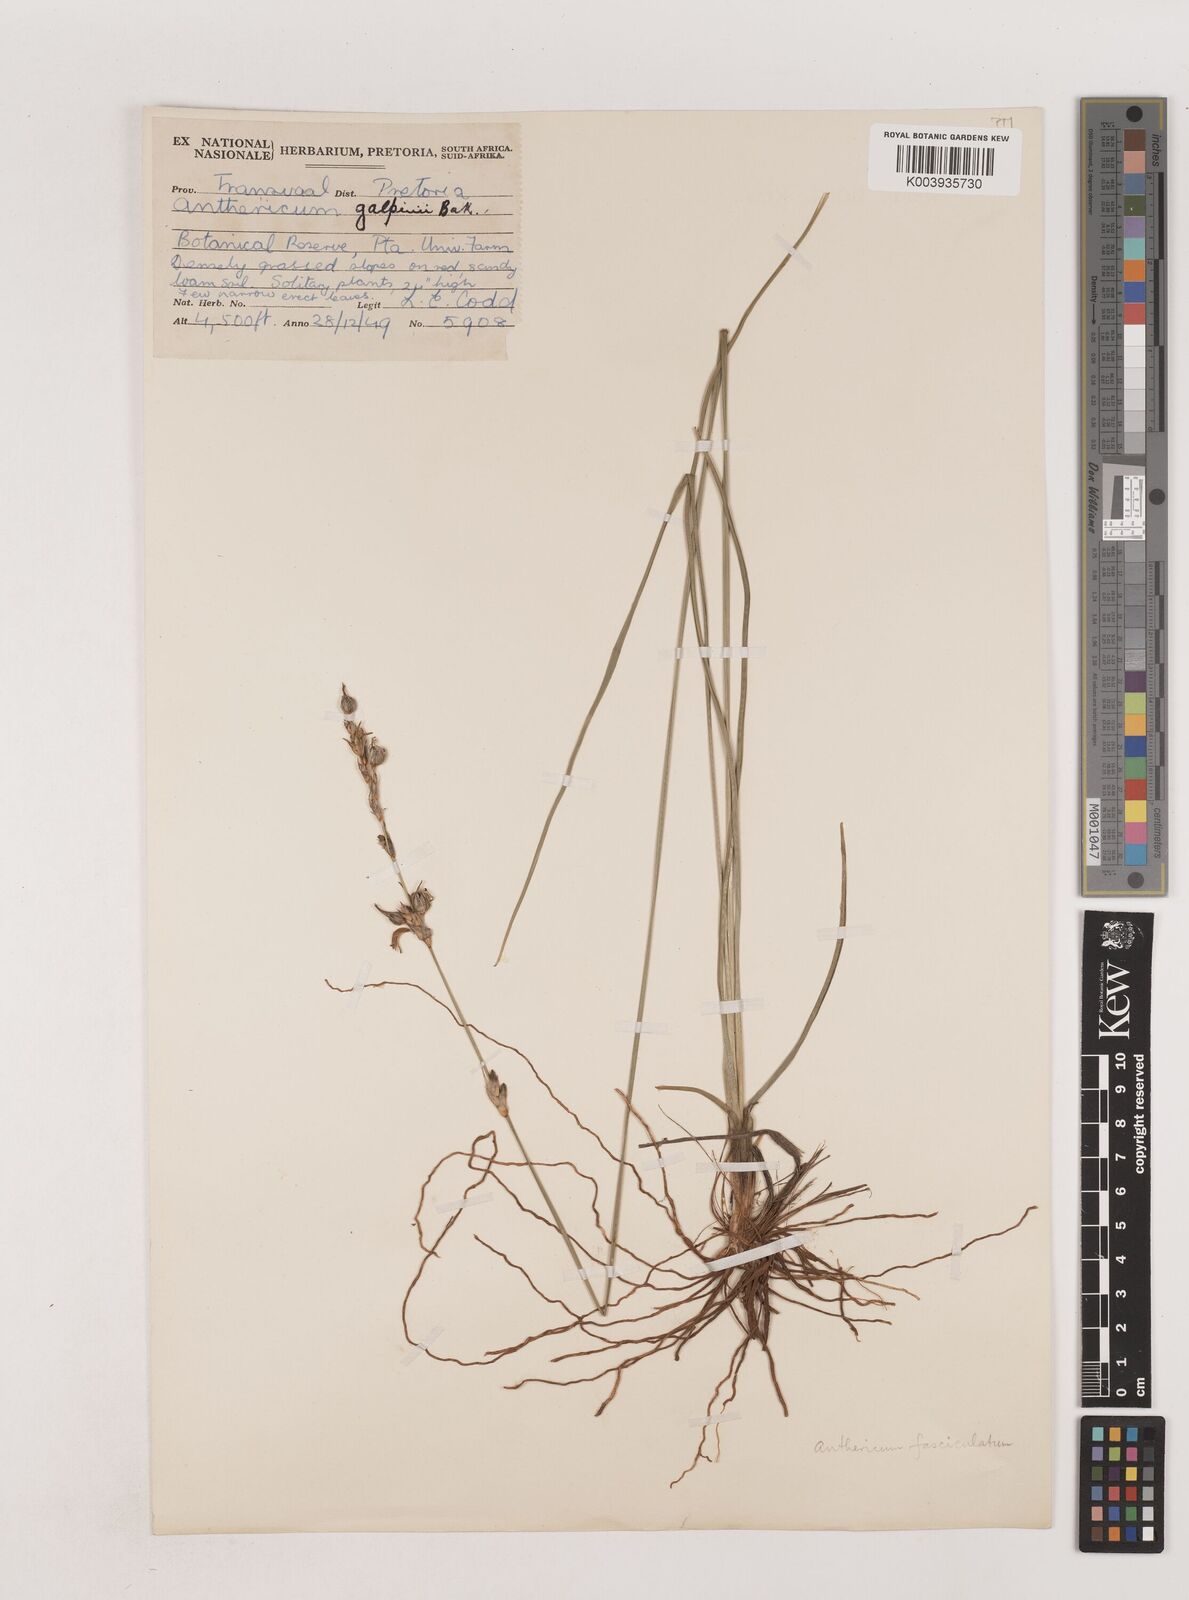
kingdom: Plantae
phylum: Tracheophyta
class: Liliopsida
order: Asparagales
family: Asparagaceae
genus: Chlorophytum
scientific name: Chlorophytum fasciculatum
